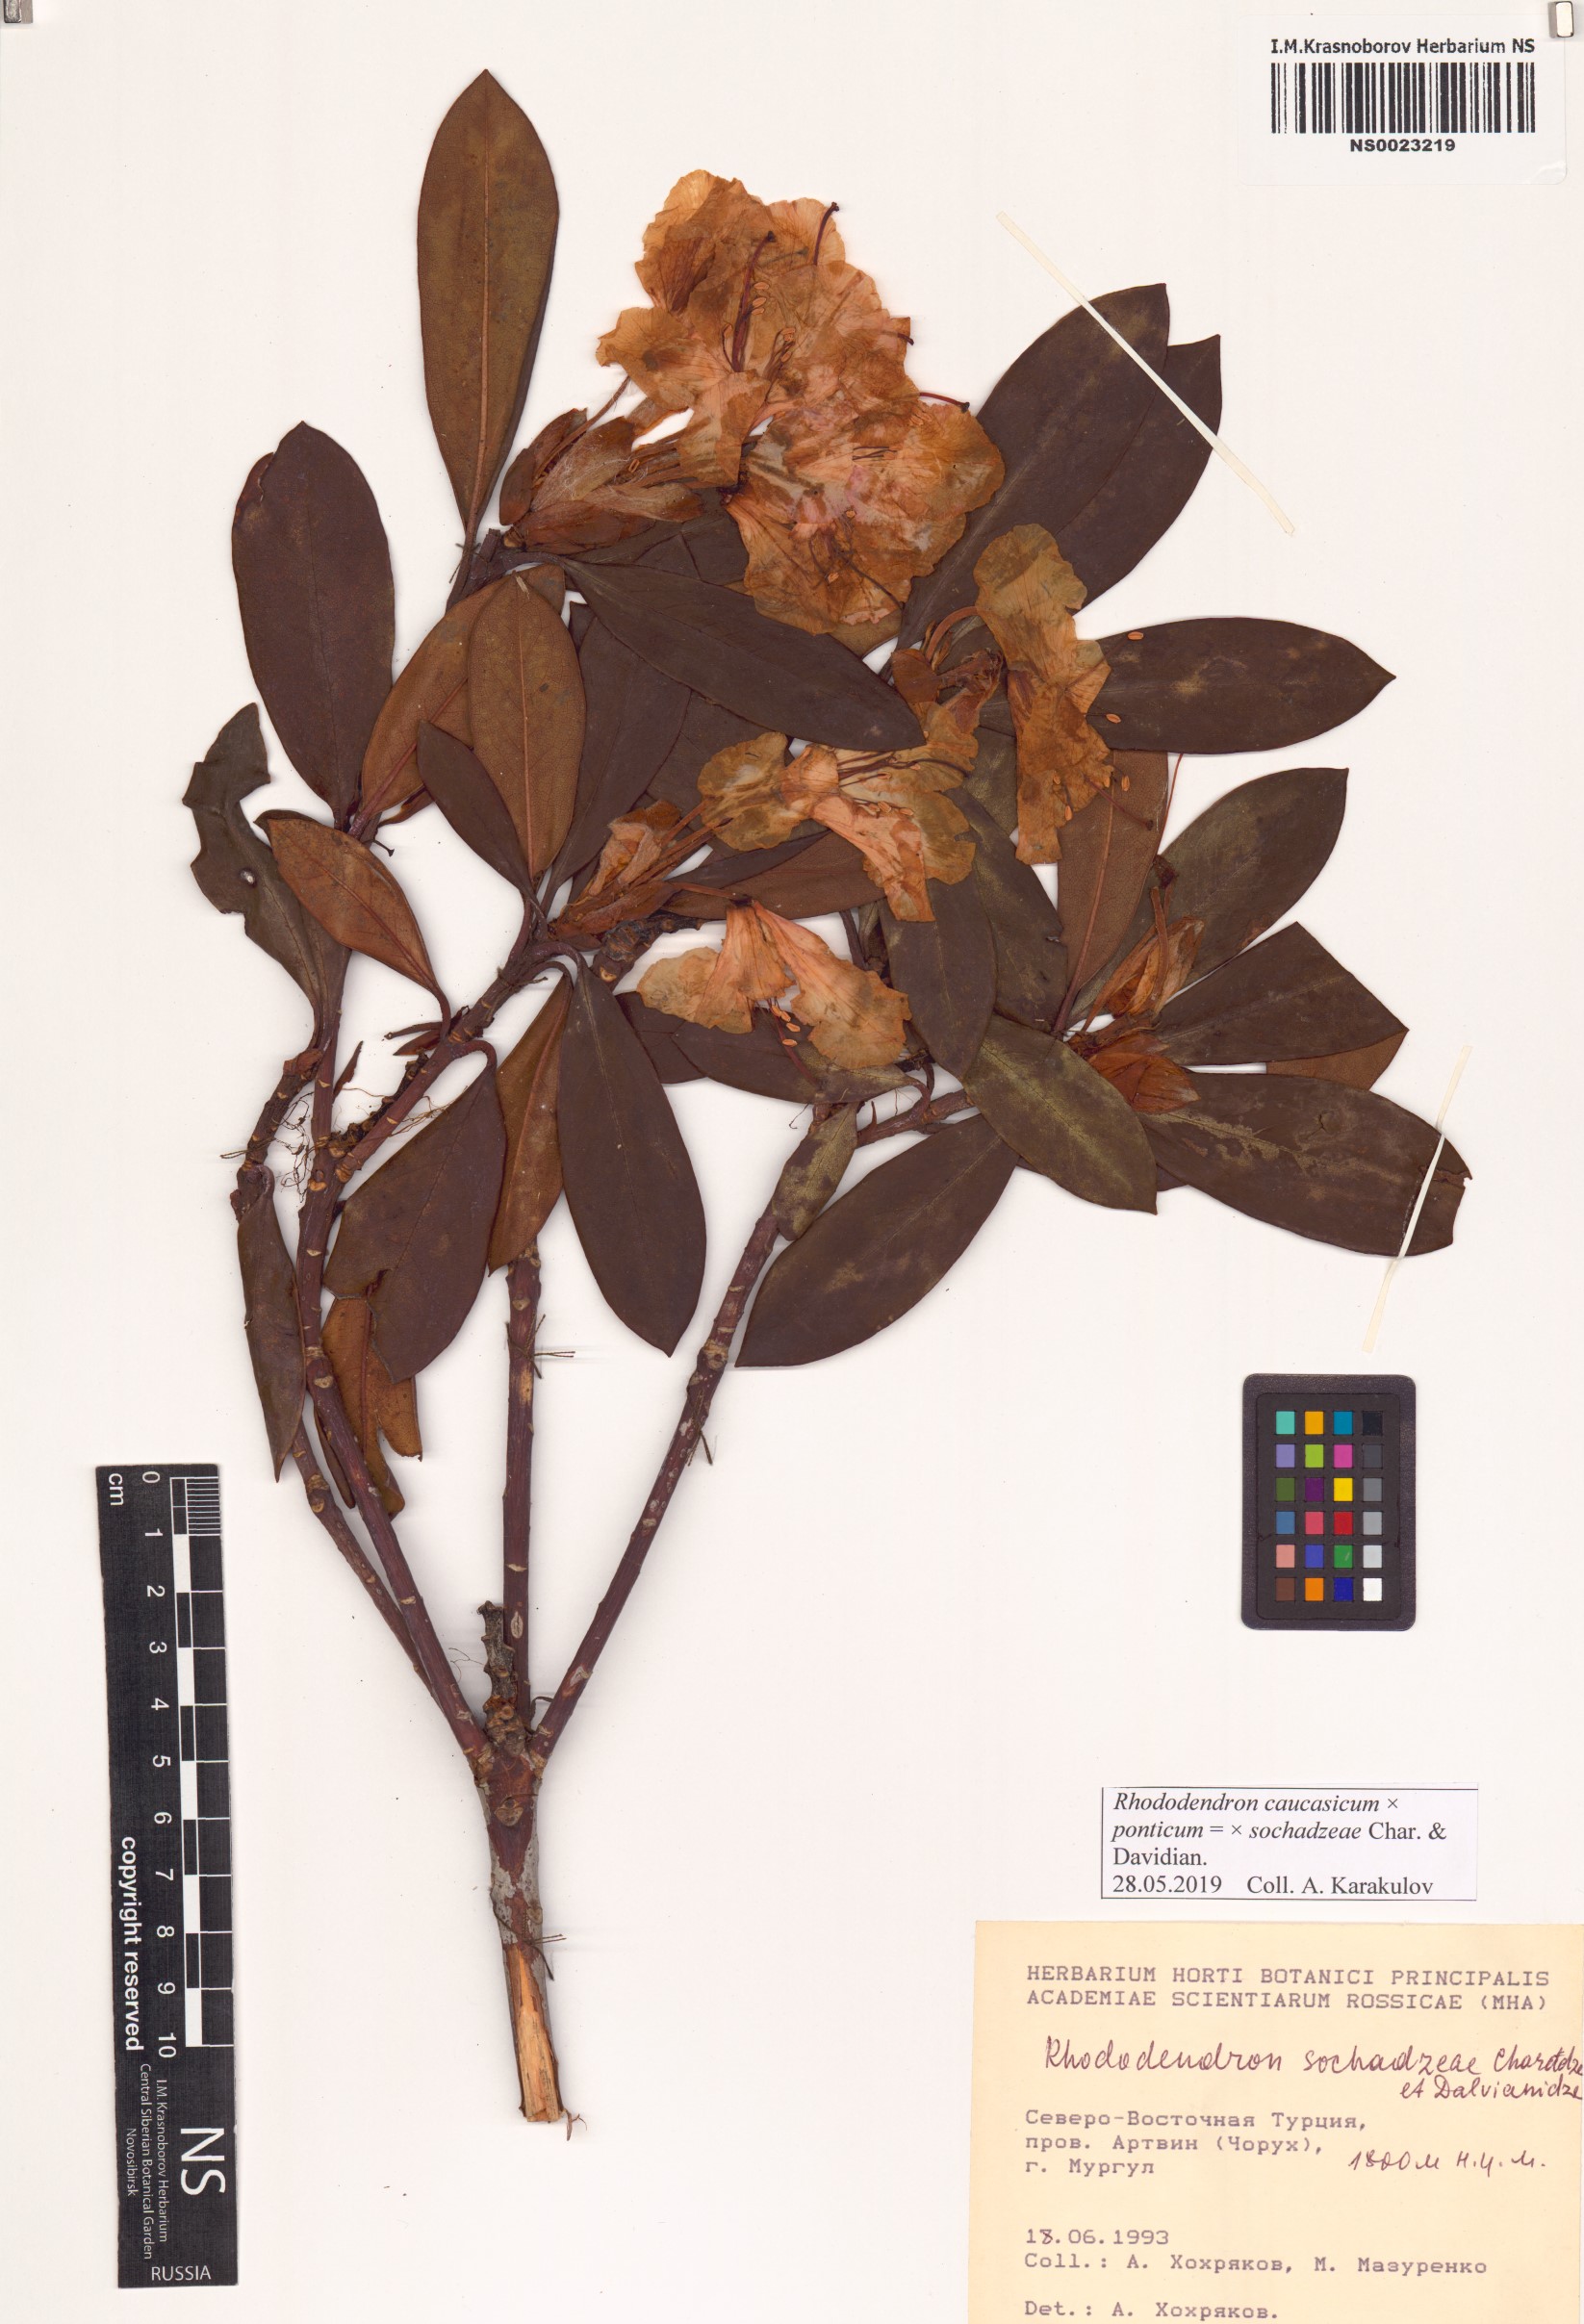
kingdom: Plantae
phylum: Tracheophyta
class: Magnoliopsida
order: Ericales
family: Ericaceae
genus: Rhododendron
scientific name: Rhododendron sochadzeae
